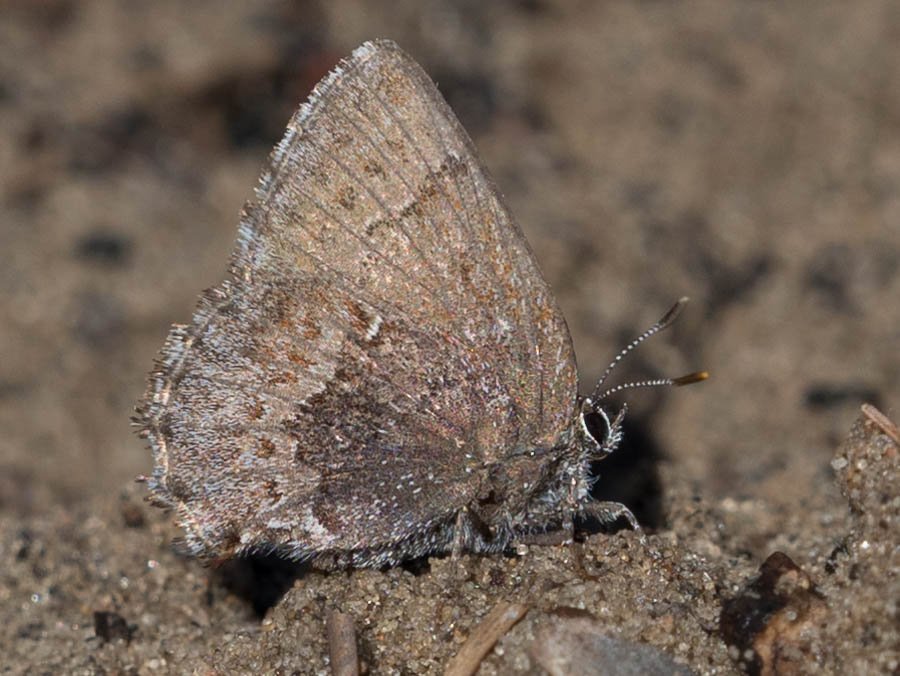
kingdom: Animalia
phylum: Arthropoda
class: Insecta
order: Lepidoptera
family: Lycaenidae
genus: Callophrys
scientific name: Callophrys polios
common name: Hoary Elfin
